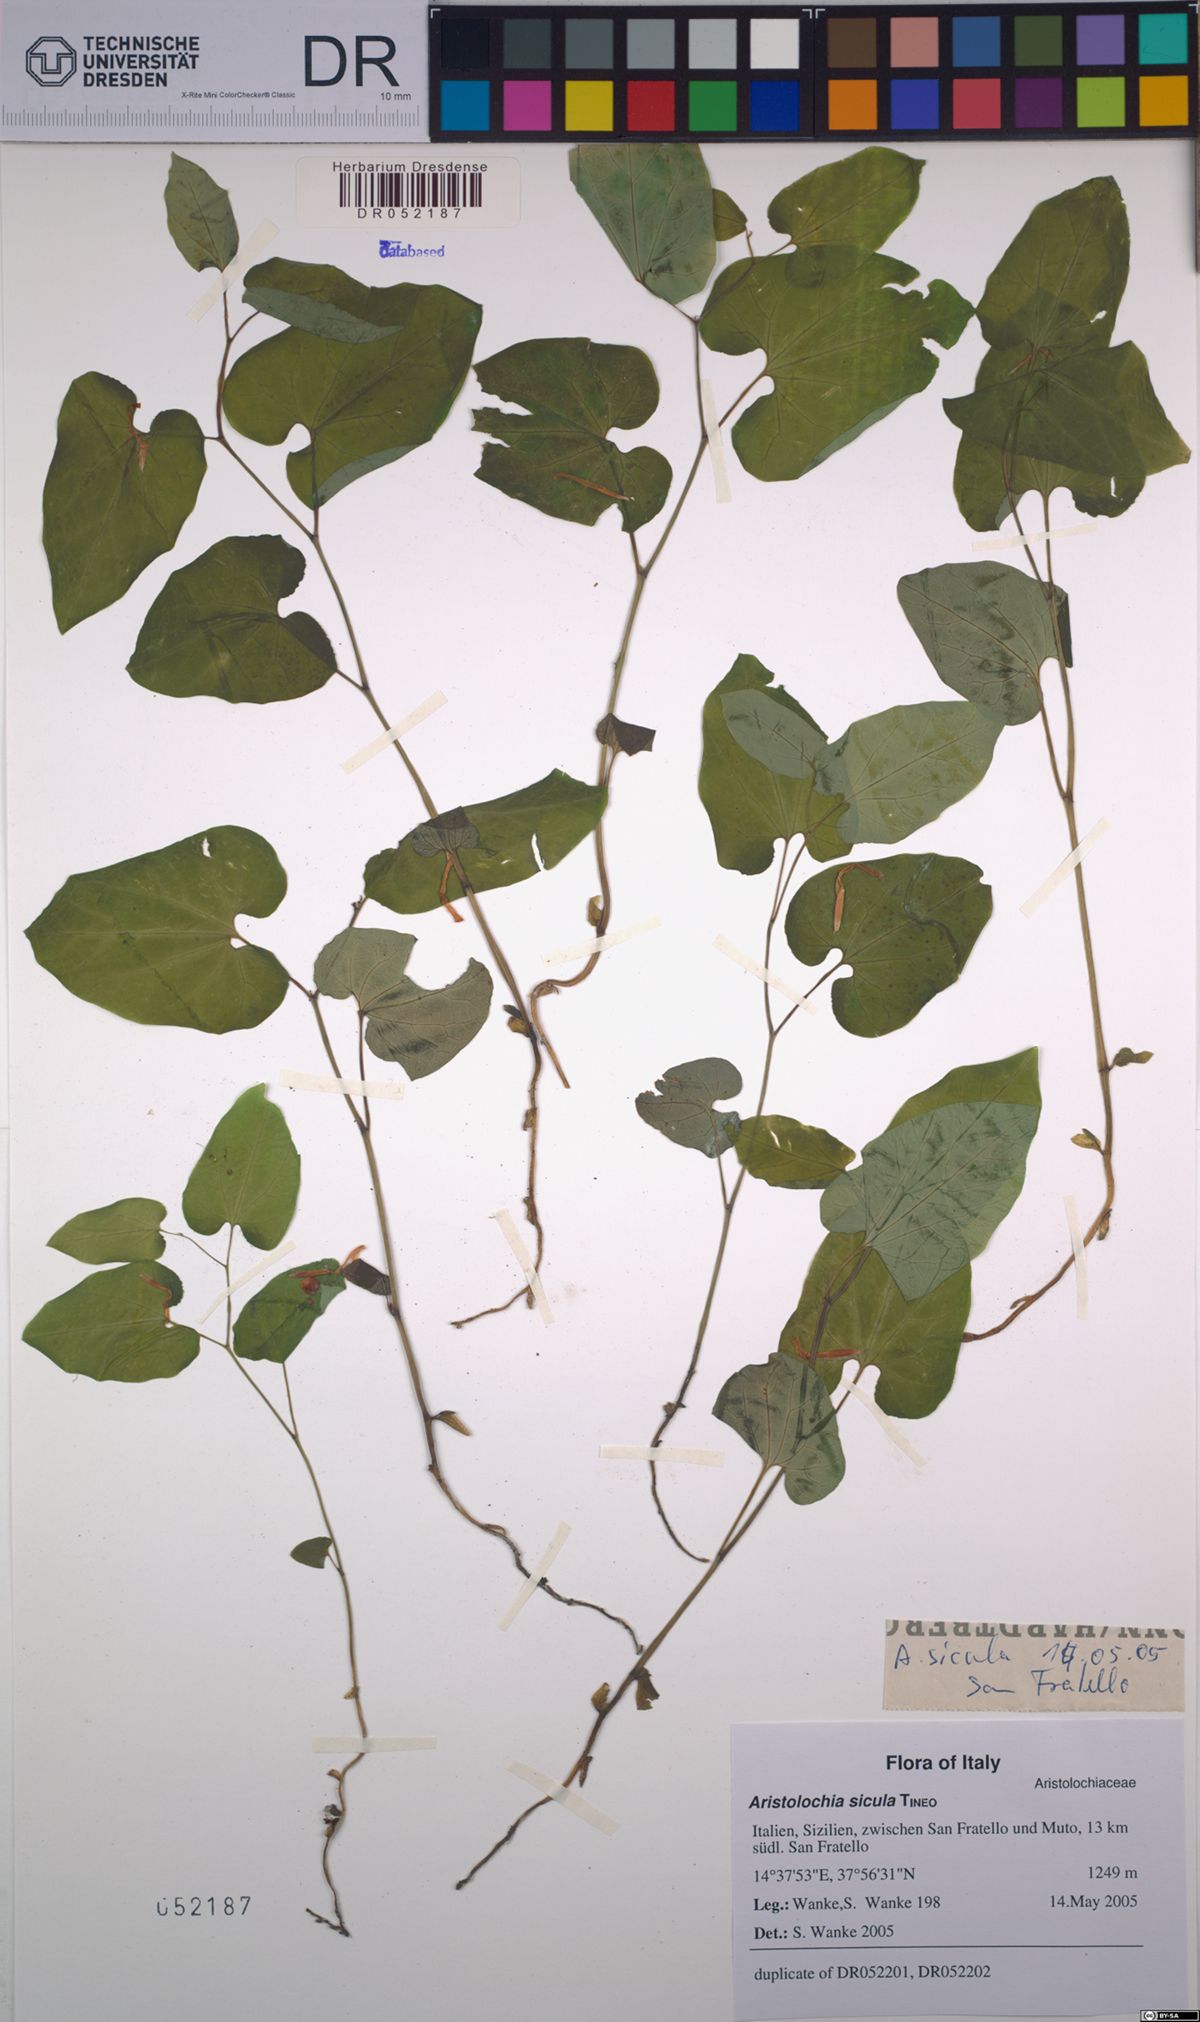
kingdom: Plantae
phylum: Tracheophyta
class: Magnoliopsida
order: Piperales
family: Aristolochiaceae
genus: Aristolochia
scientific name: Aristolochia sicula
